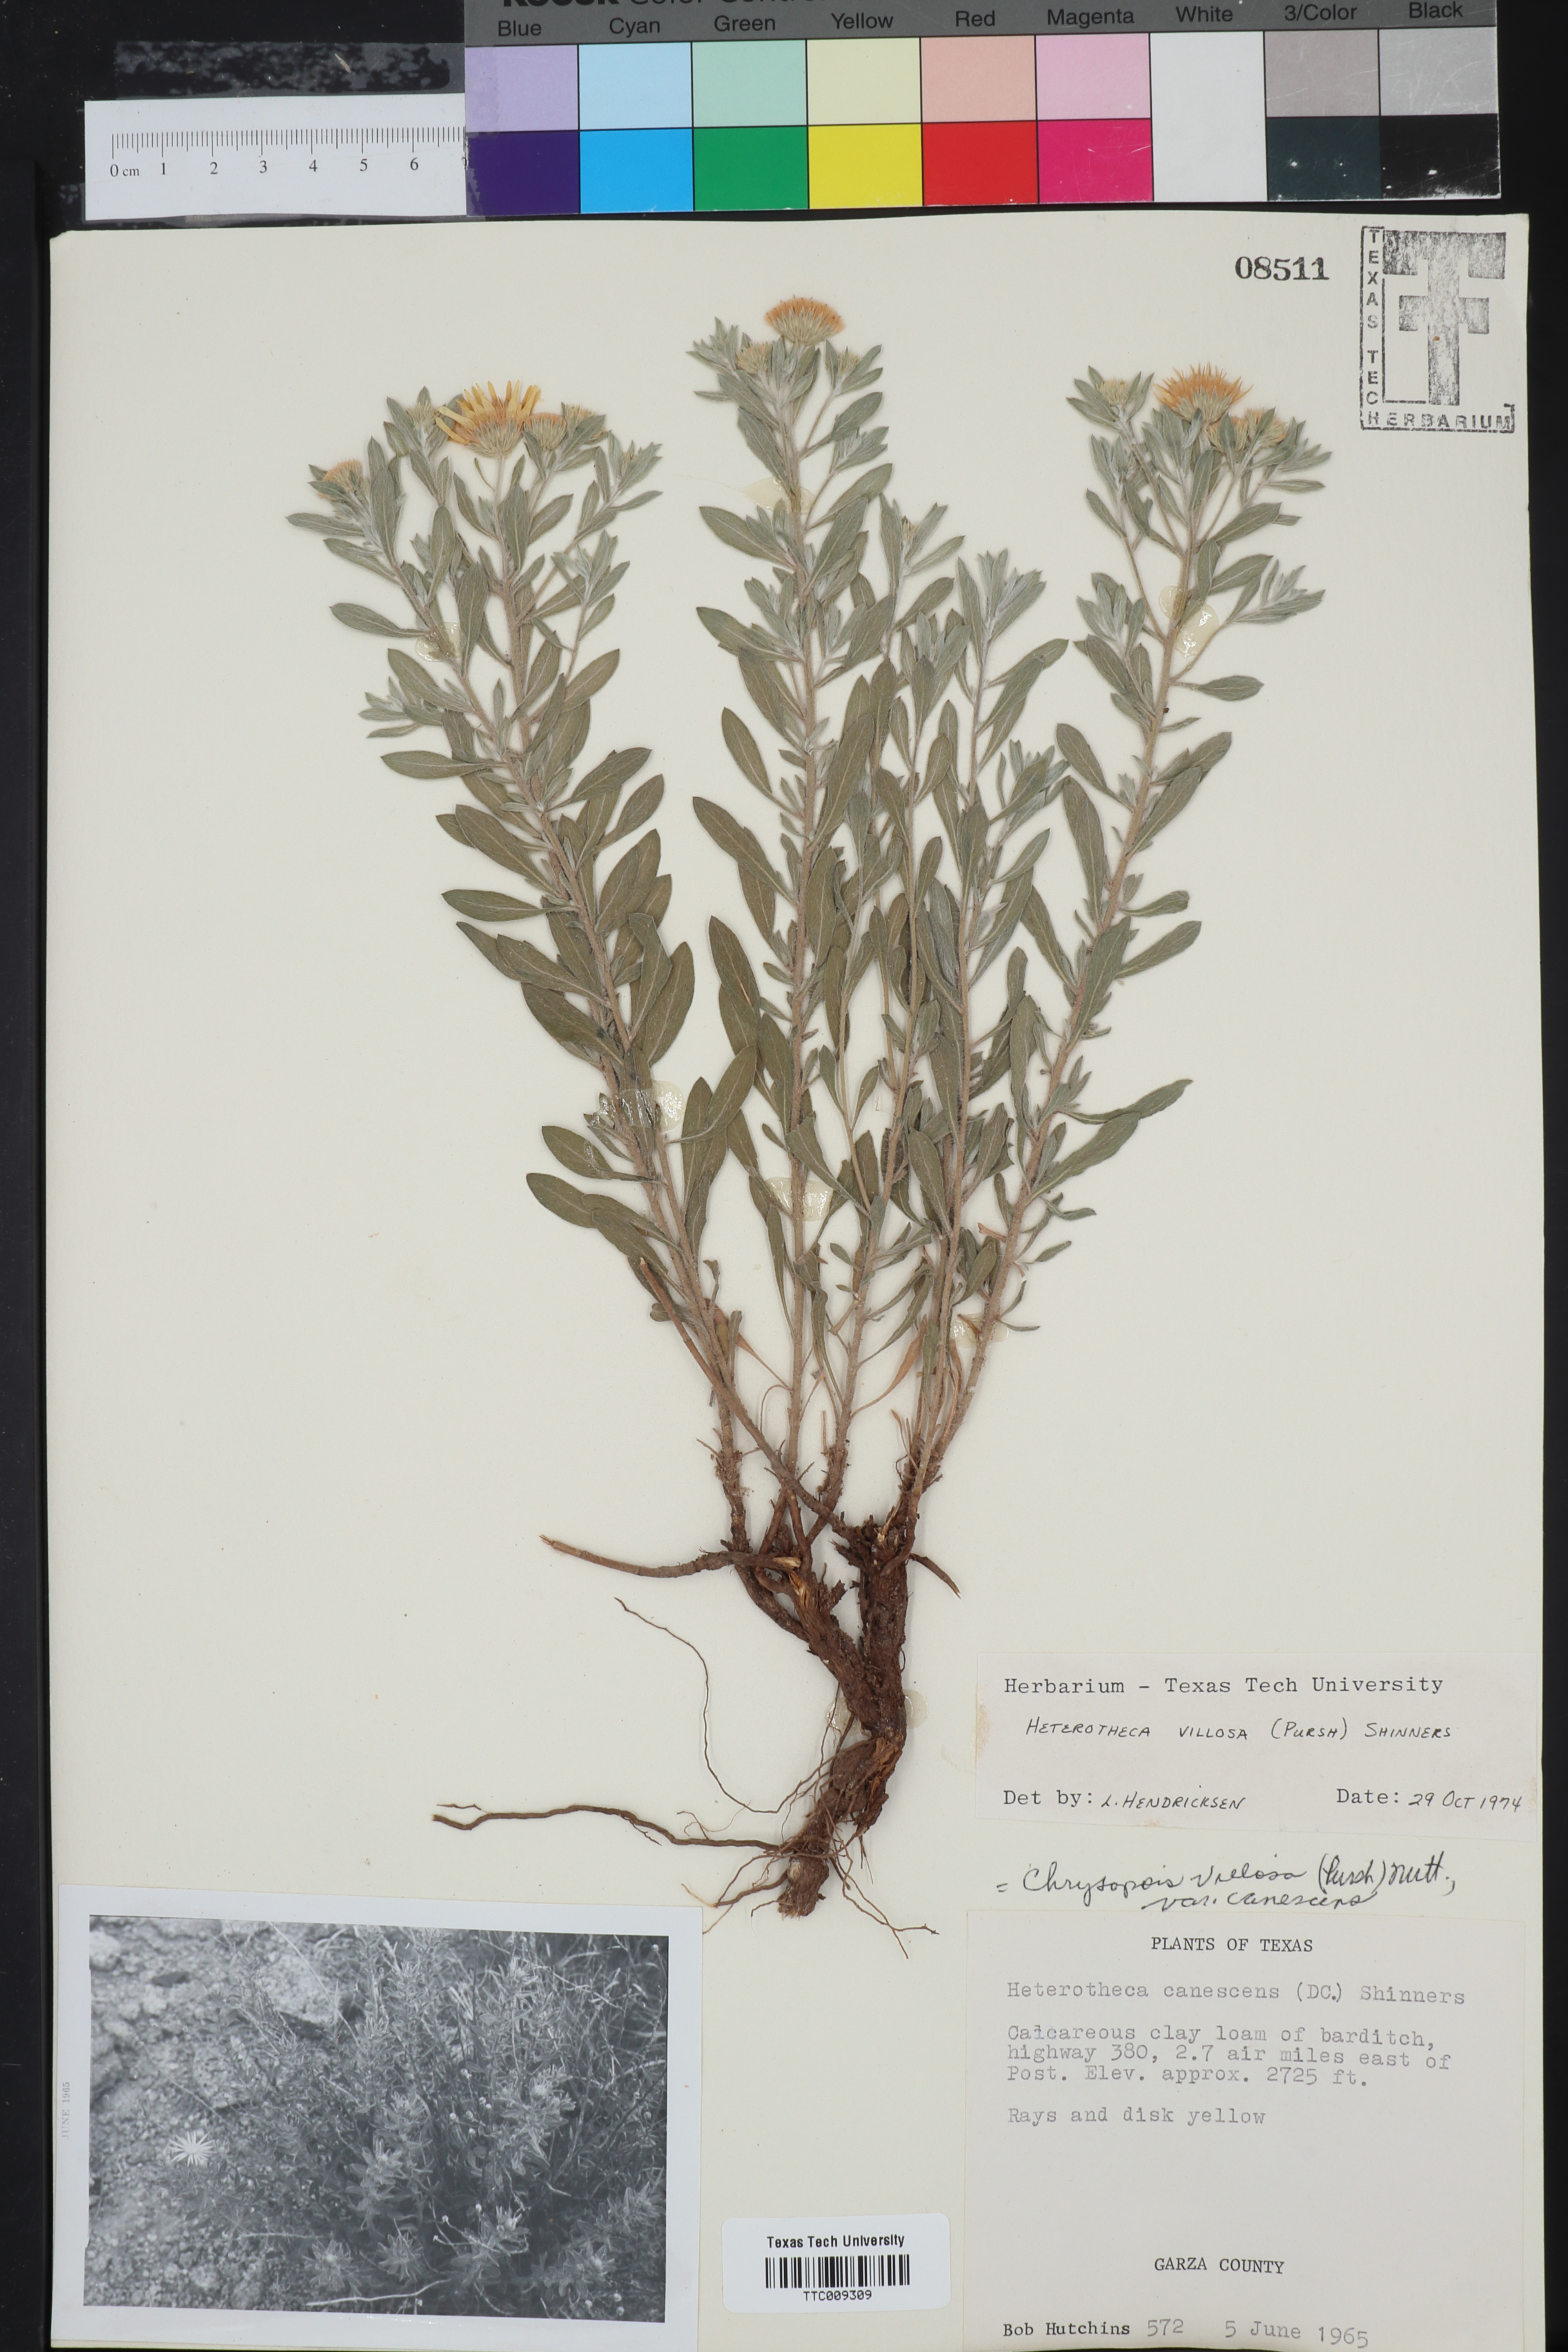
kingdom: Plantae
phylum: Tracheophyta
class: Magnoliopsida
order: Asterales
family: Asteraceae
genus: Heterotheca
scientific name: Heterotheca villosa
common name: Hairy false goldenaster
